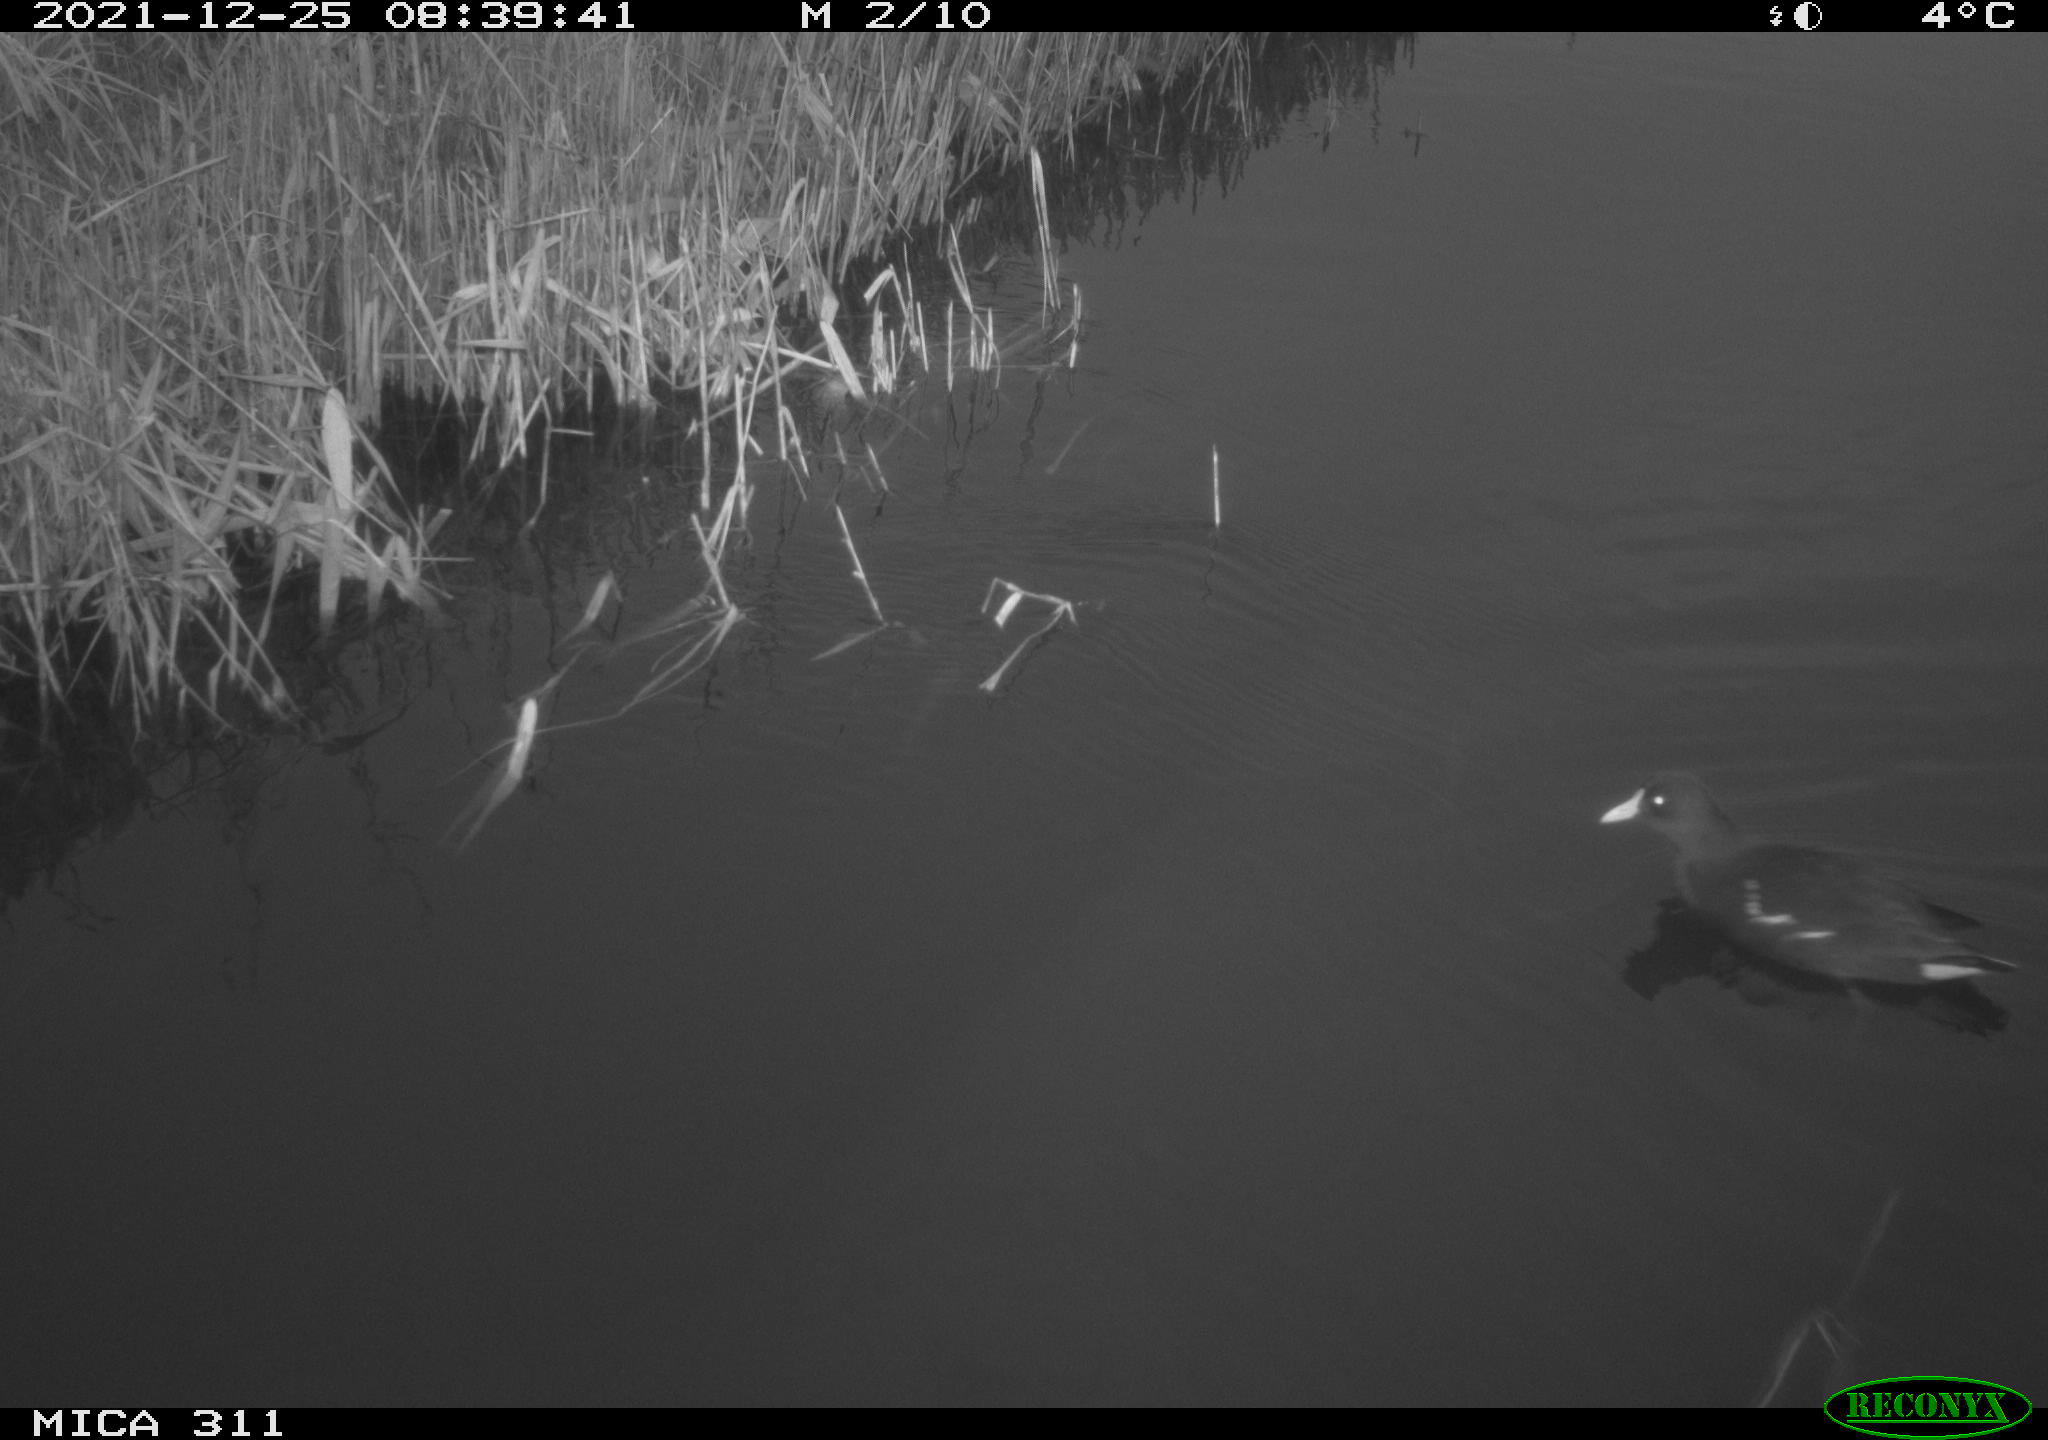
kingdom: Animalia
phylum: Chordata
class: Aves
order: Gruiformes
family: Rallidae
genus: Gallinula
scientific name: Gallinula chloropus
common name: Common moorhen
